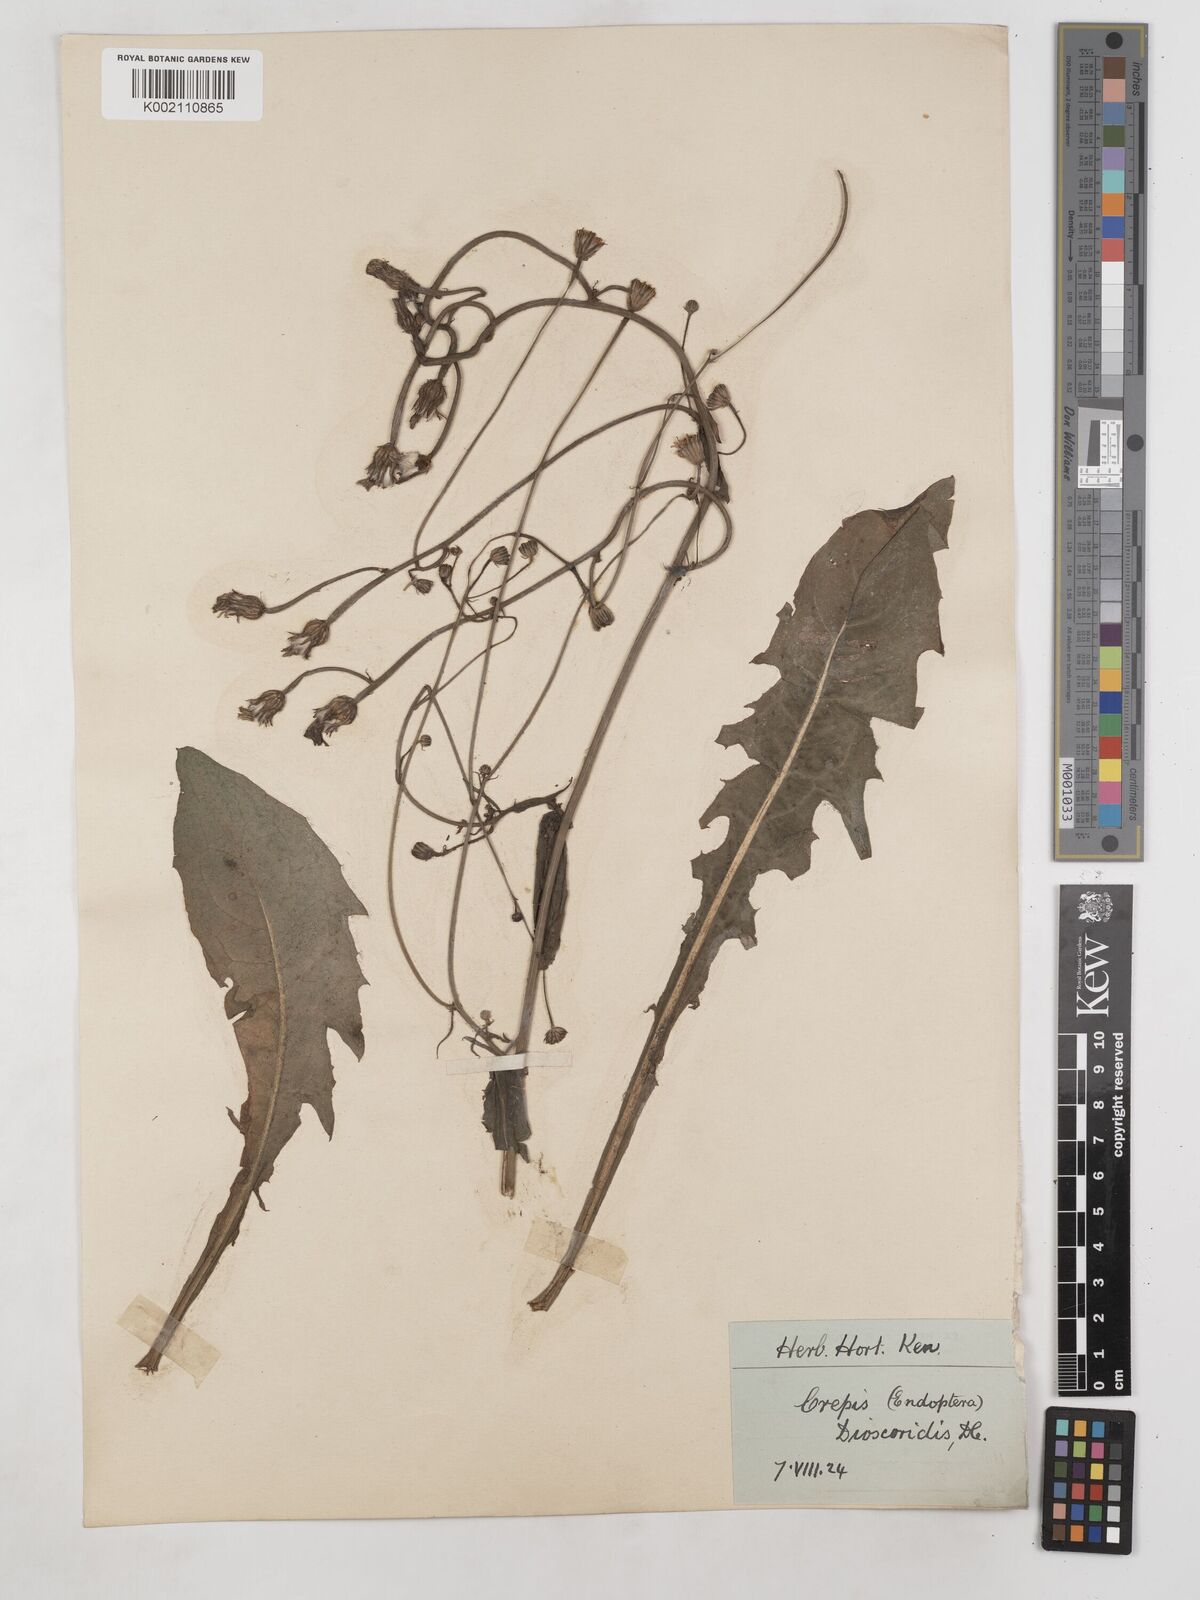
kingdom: Plantae
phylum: Tracheophyta
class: Magnoliopsida
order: Asterales
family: Asteraceae
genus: Crepis
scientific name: Crepis dioscoridis
